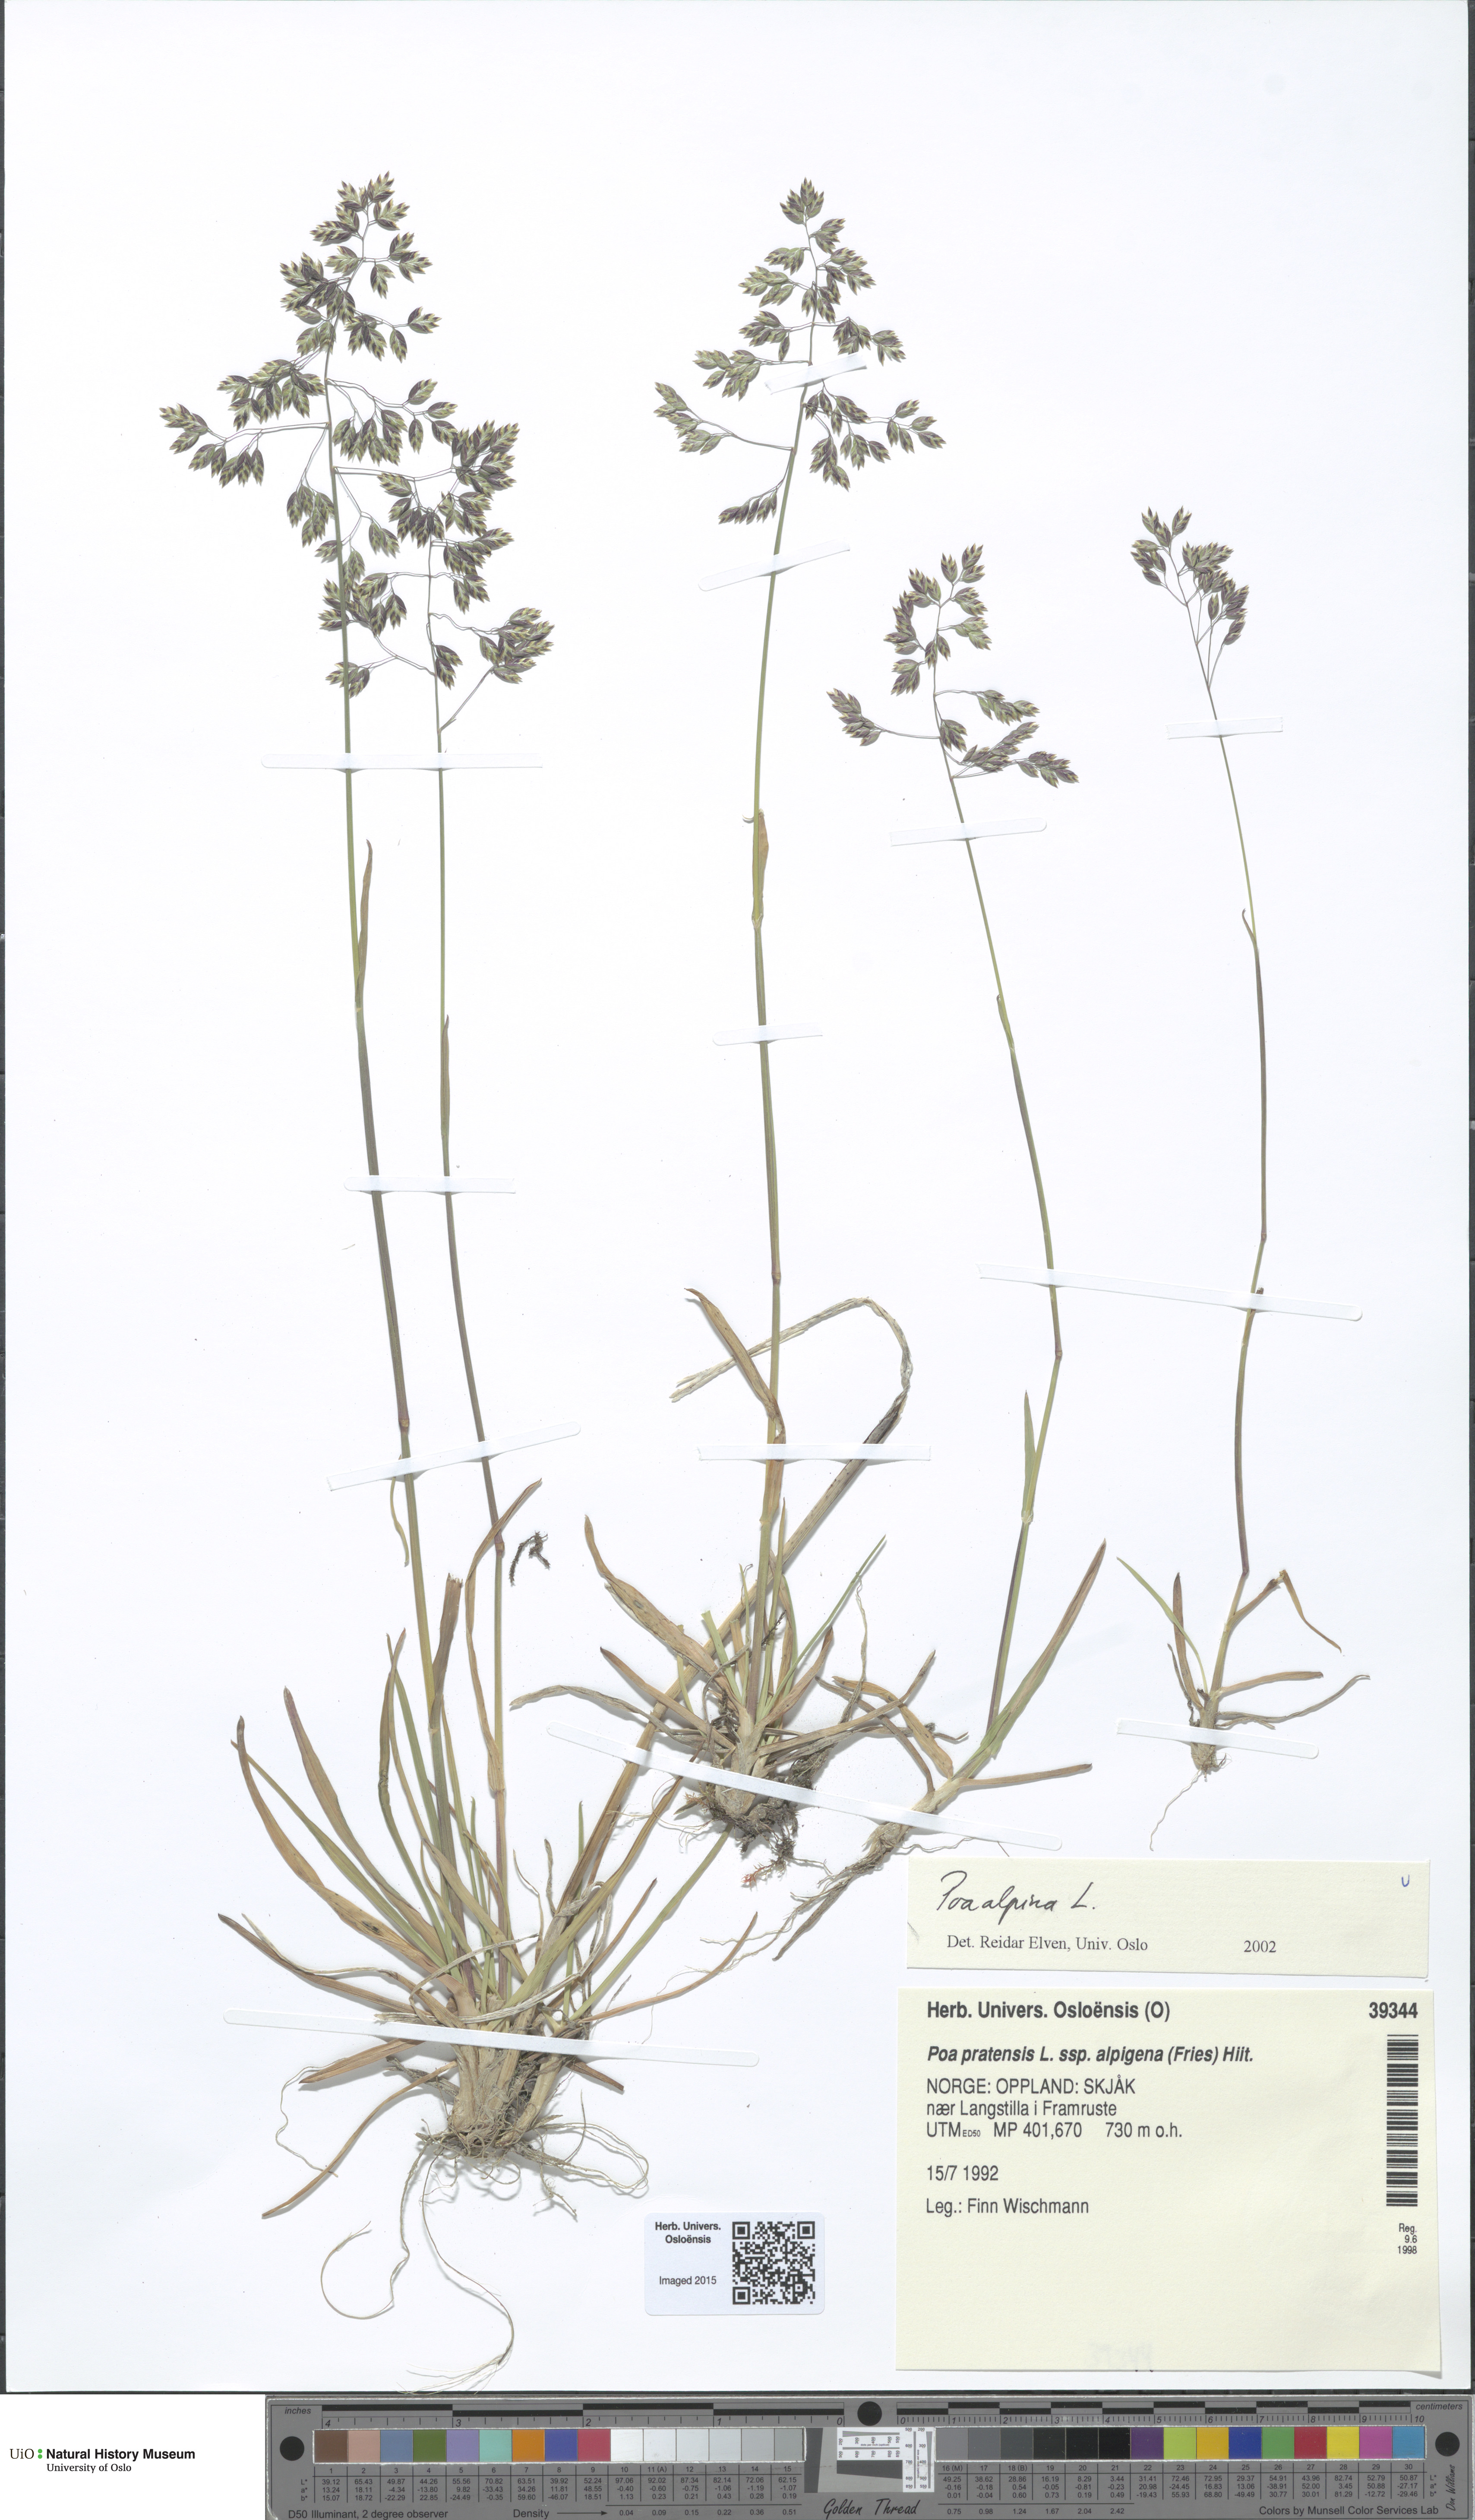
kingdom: Plantae
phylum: Tracheophyta
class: Liliopsida
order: Poales
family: Poaceae
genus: Poa
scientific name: Poa alpina
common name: Alpine bluegrass
